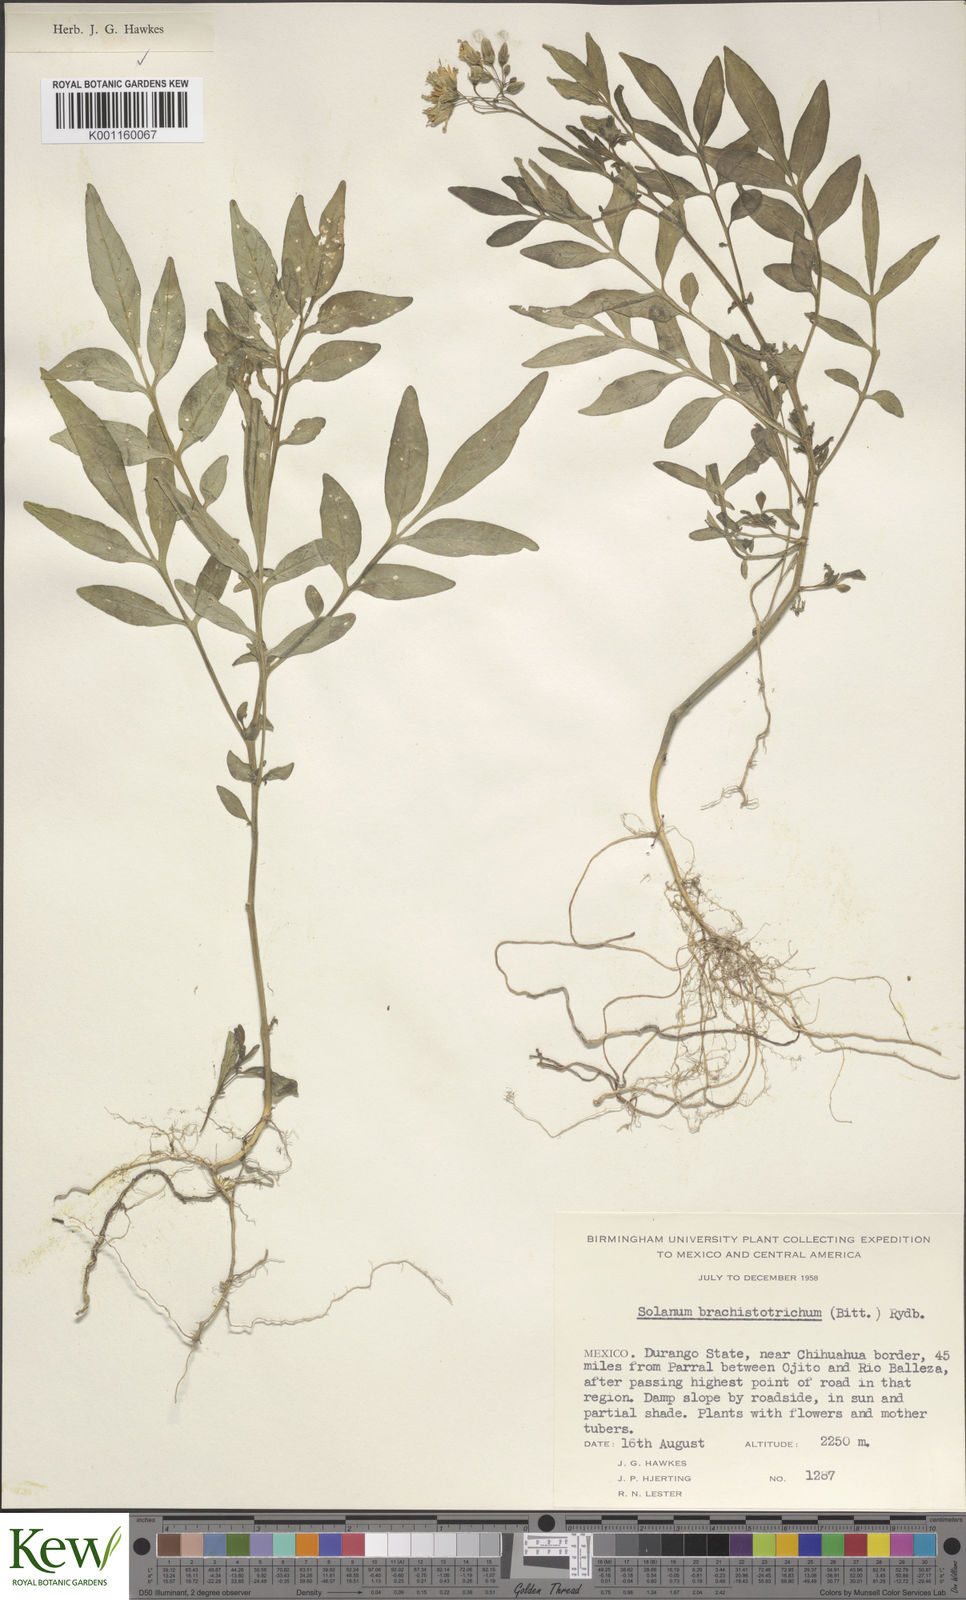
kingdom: Plantae
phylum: Tracheophyta
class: Magnoliopsida
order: Solanales
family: Solanaceae
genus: Solanum
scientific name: Solanum
